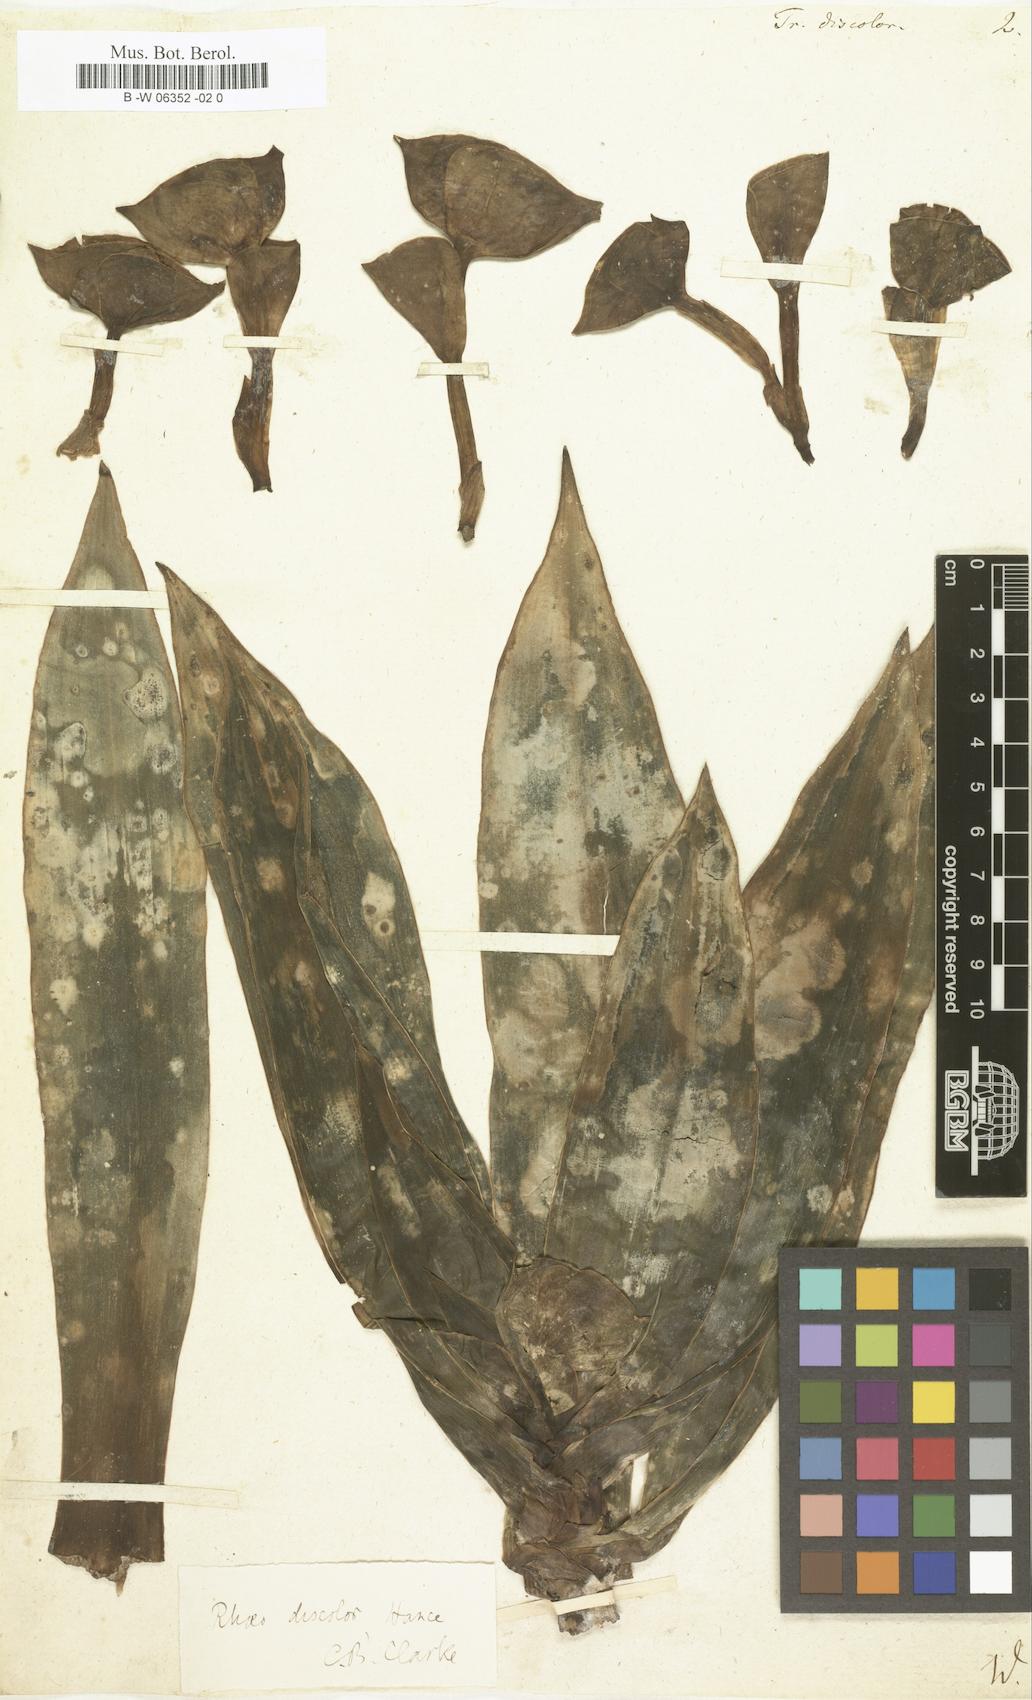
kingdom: Plantae
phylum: Tracheophyta
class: Liliopsida
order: Commelinales
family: Commelinaceae
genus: Tradescantia
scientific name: Tradescantia
